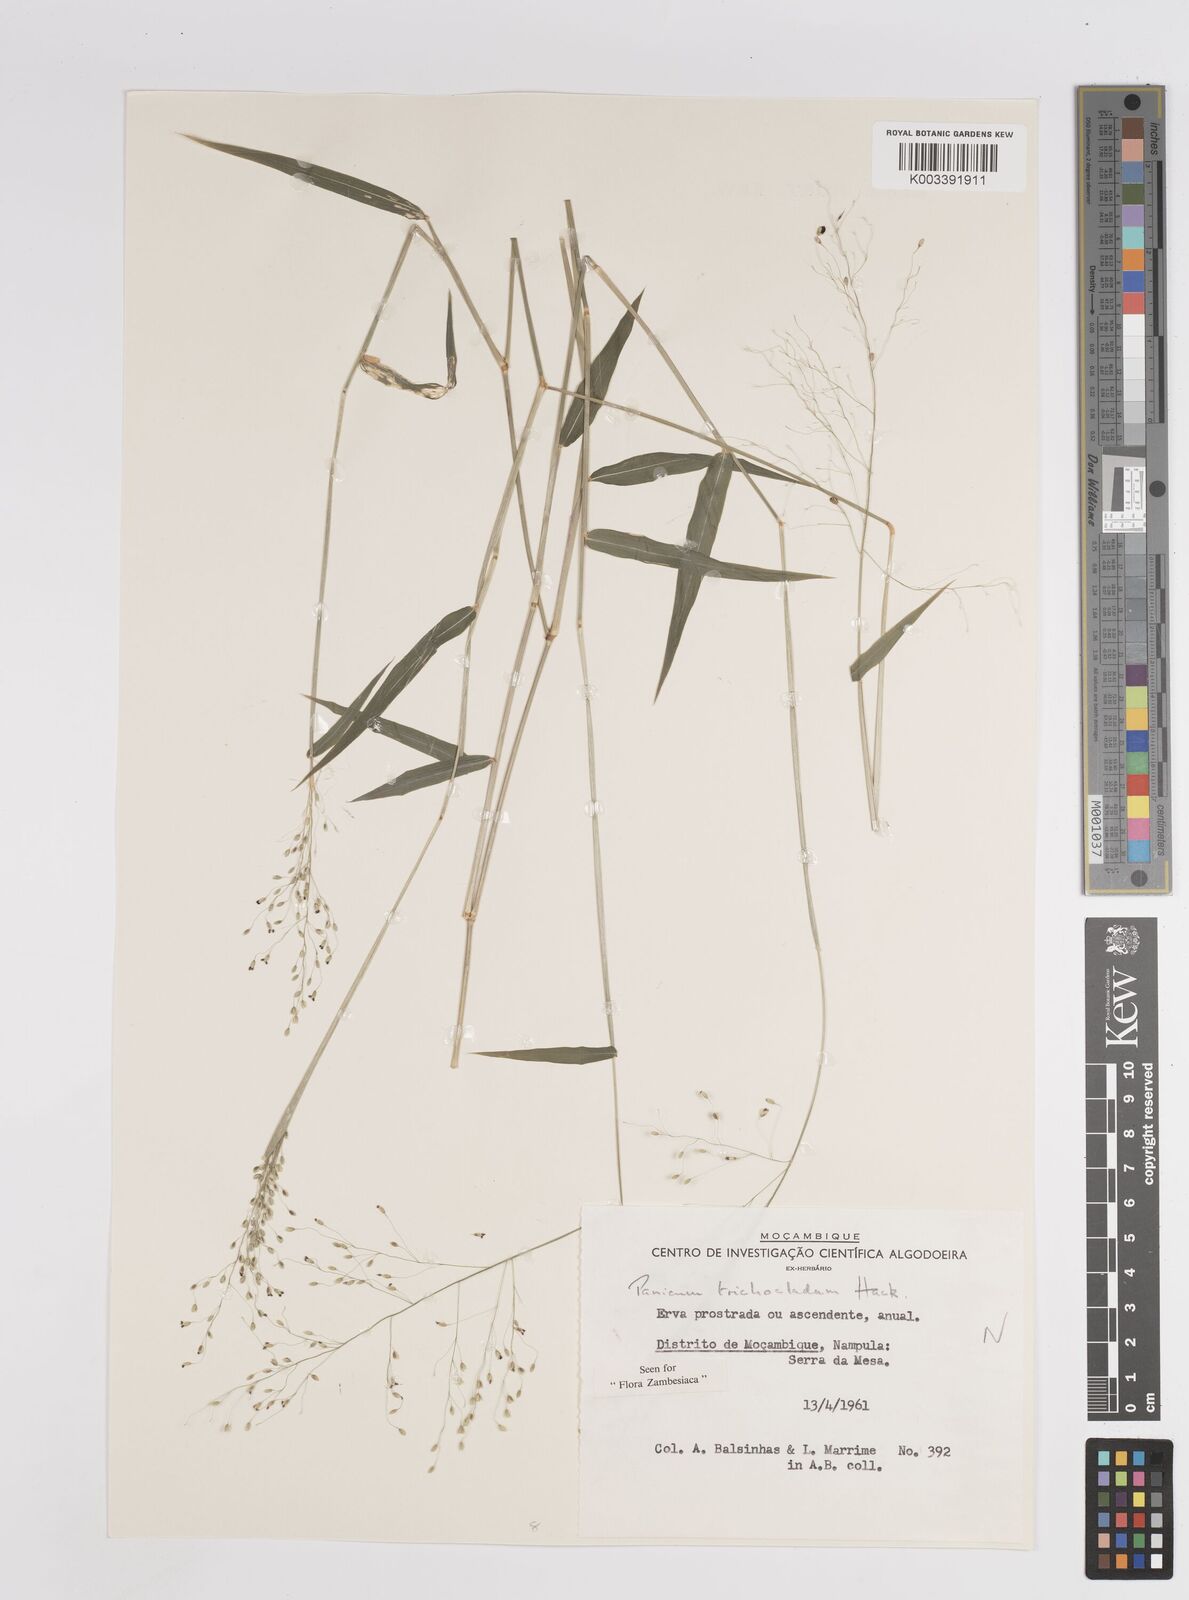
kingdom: Plantae
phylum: Tracheophyta
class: Liliopsida
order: Poales
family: Poaceae
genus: Panicum
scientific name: Panicum trichocladum
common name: Donkey grass
